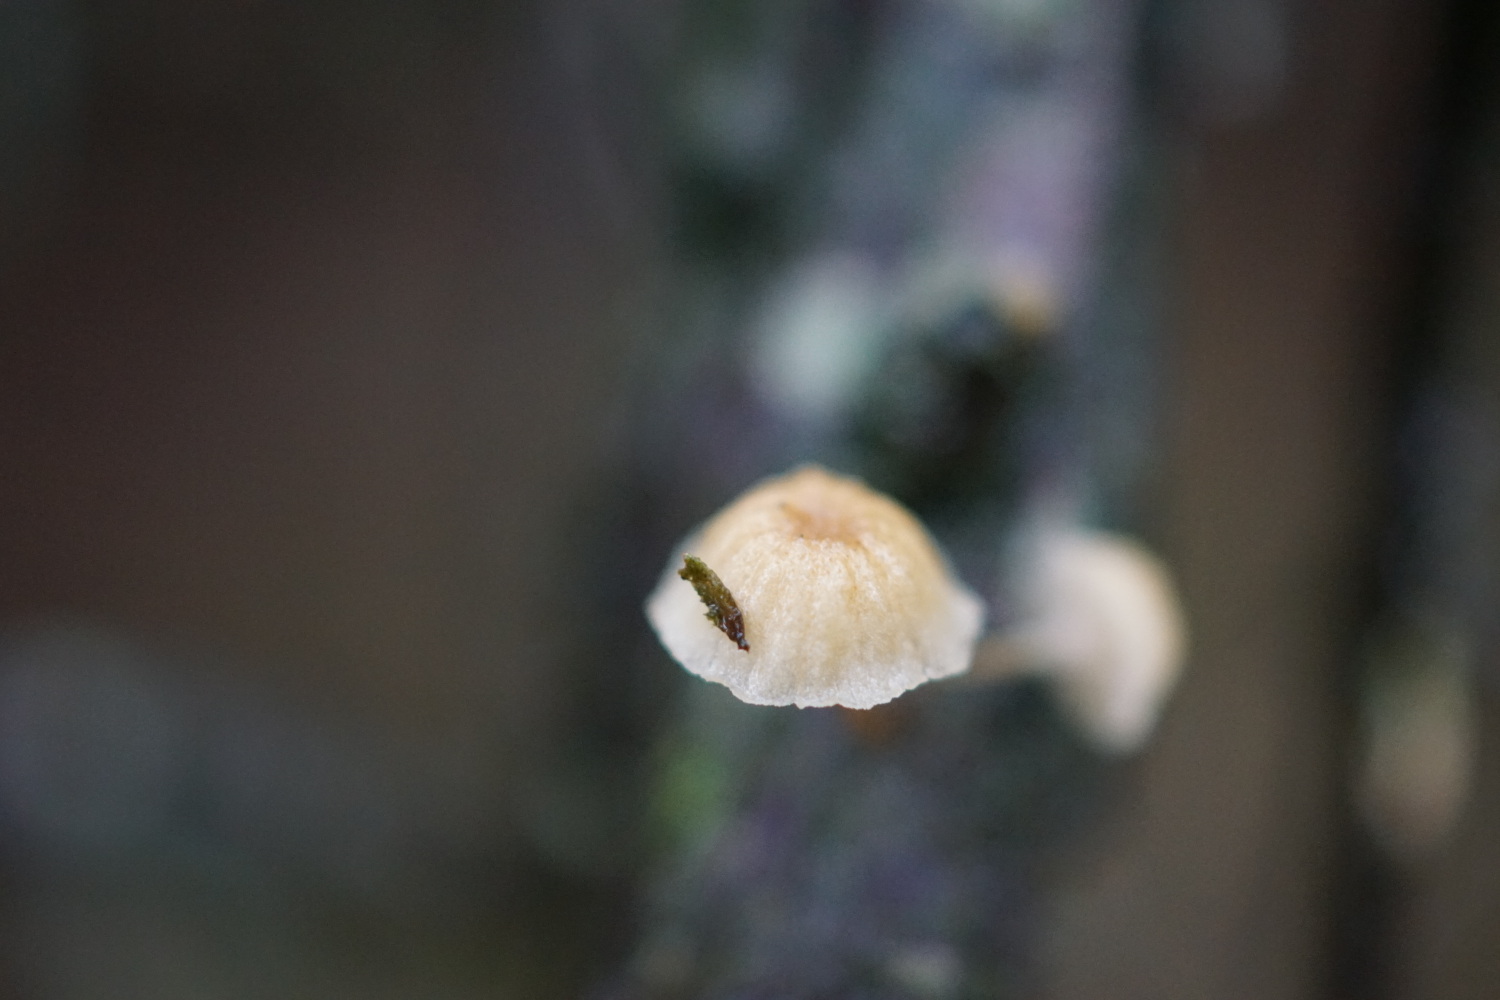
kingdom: Fungi
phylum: Basidiomycota
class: Agaricomycetes
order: Agaricales
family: Mycenaceae
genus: Mycena
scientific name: Mycena juniperina
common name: ene-Huesvamp
